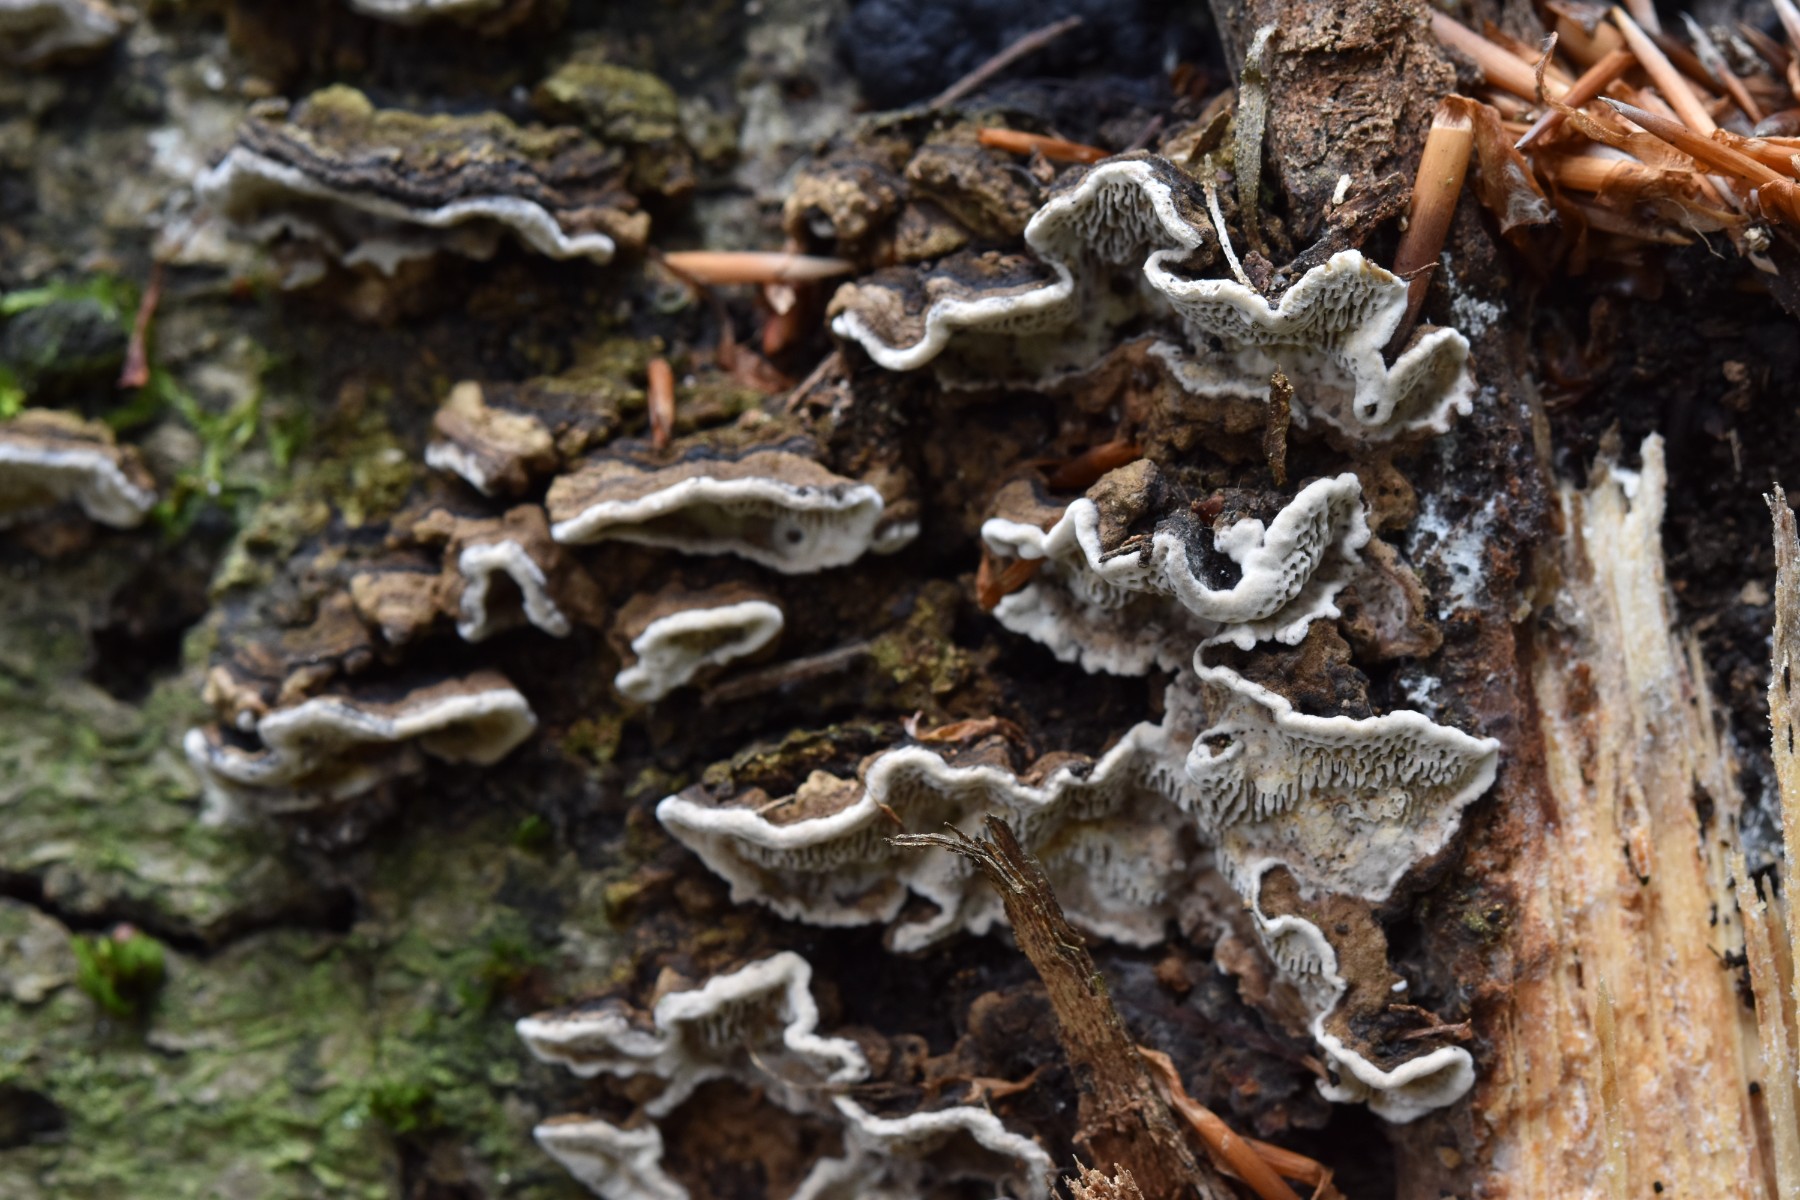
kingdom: Fungi
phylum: Basidiomycota
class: Agaricomycetes
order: Polyporales
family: Polyporaceae
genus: Podofomes
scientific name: Podofomes mollis
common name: blød begporesvamp
